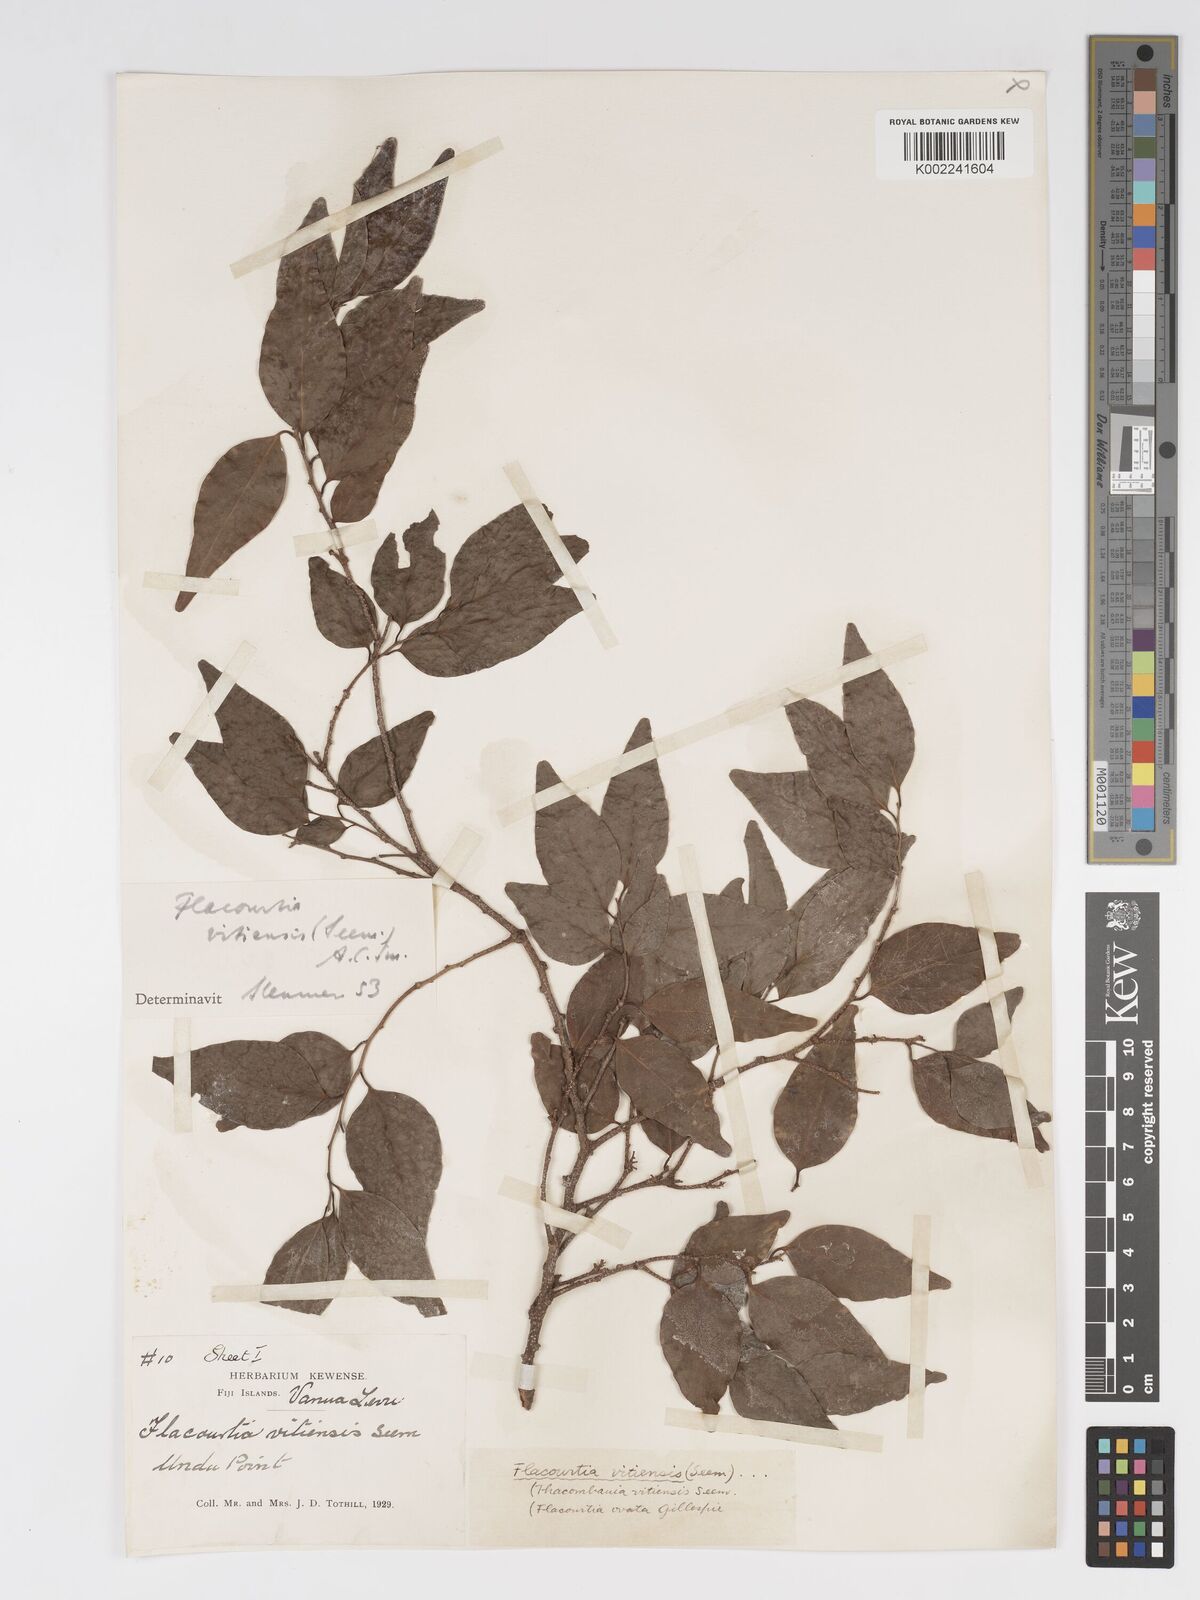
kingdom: Plantae
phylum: Tracheophyta
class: Magnoliopsida
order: Malpighiales
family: Salicaceae
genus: Flacourtia
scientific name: Flacourtia vitiensis
